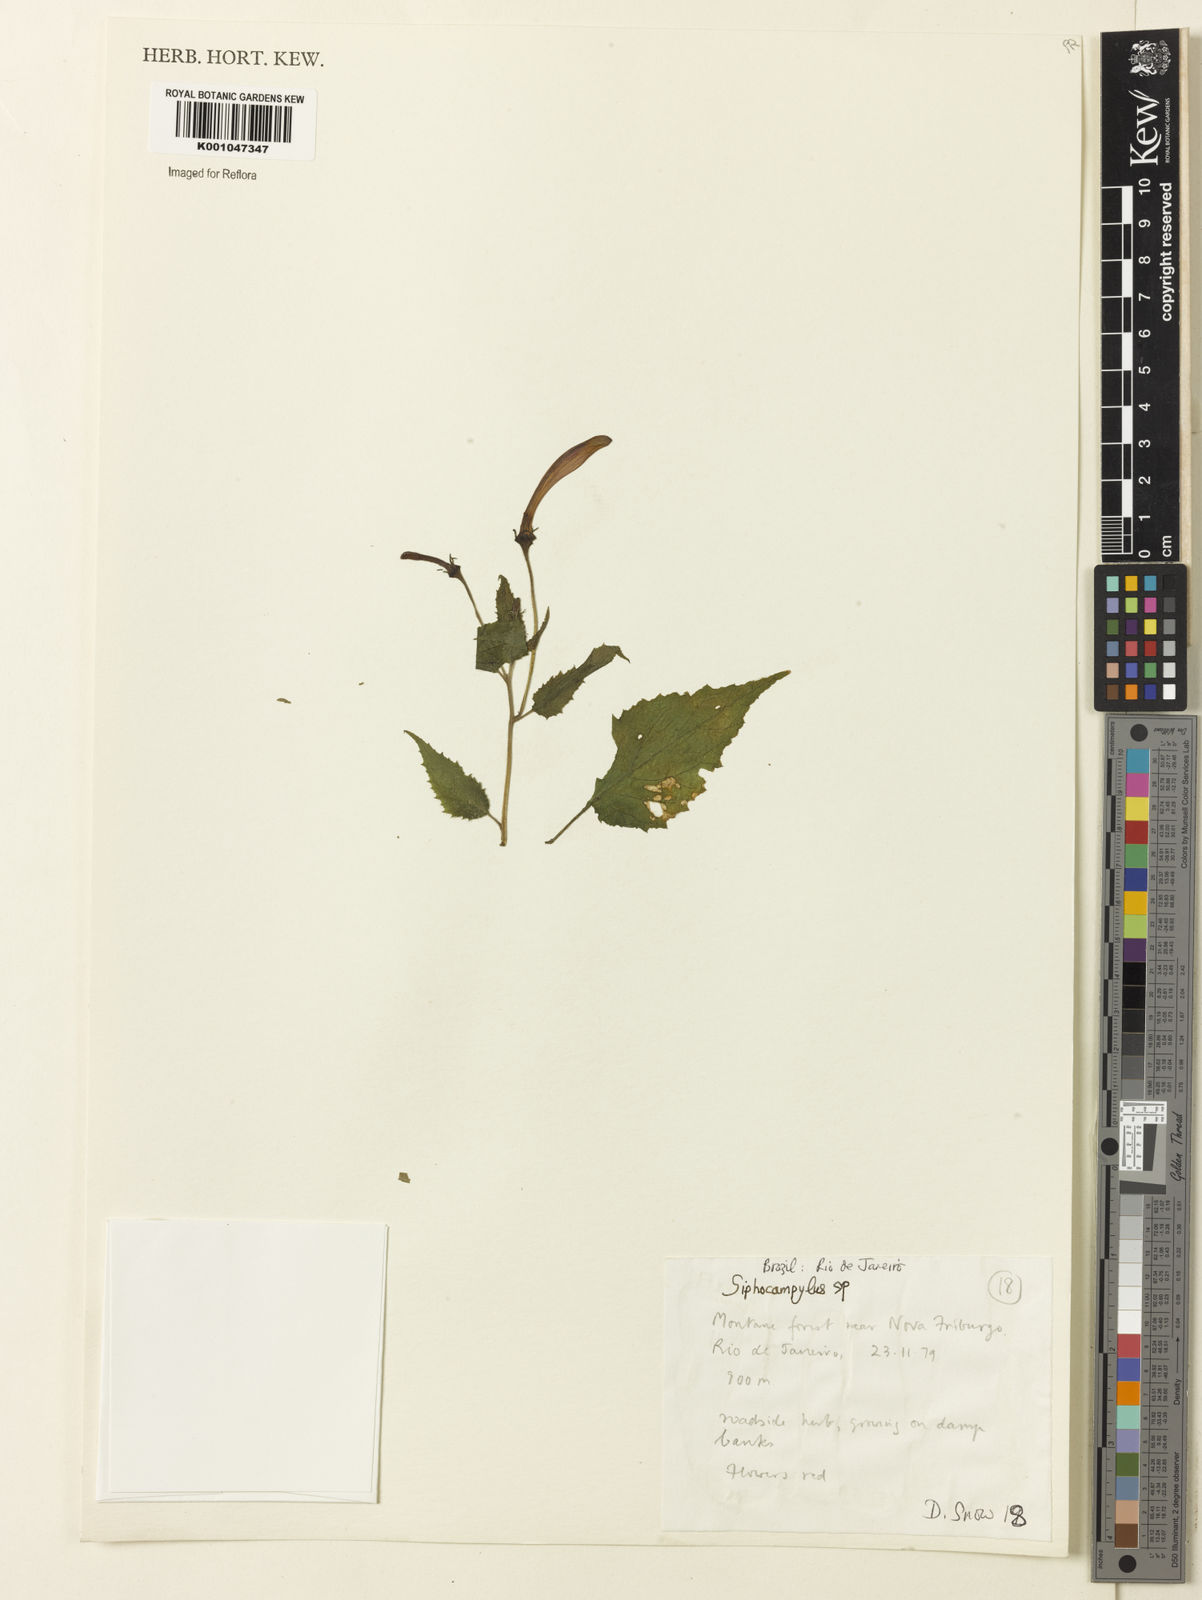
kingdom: Plantae
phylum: Tracheophyta
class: Magnoliopsida
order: Asterales
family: Campanulaceae
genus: Siphocampylus
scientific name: Siphocampylus
